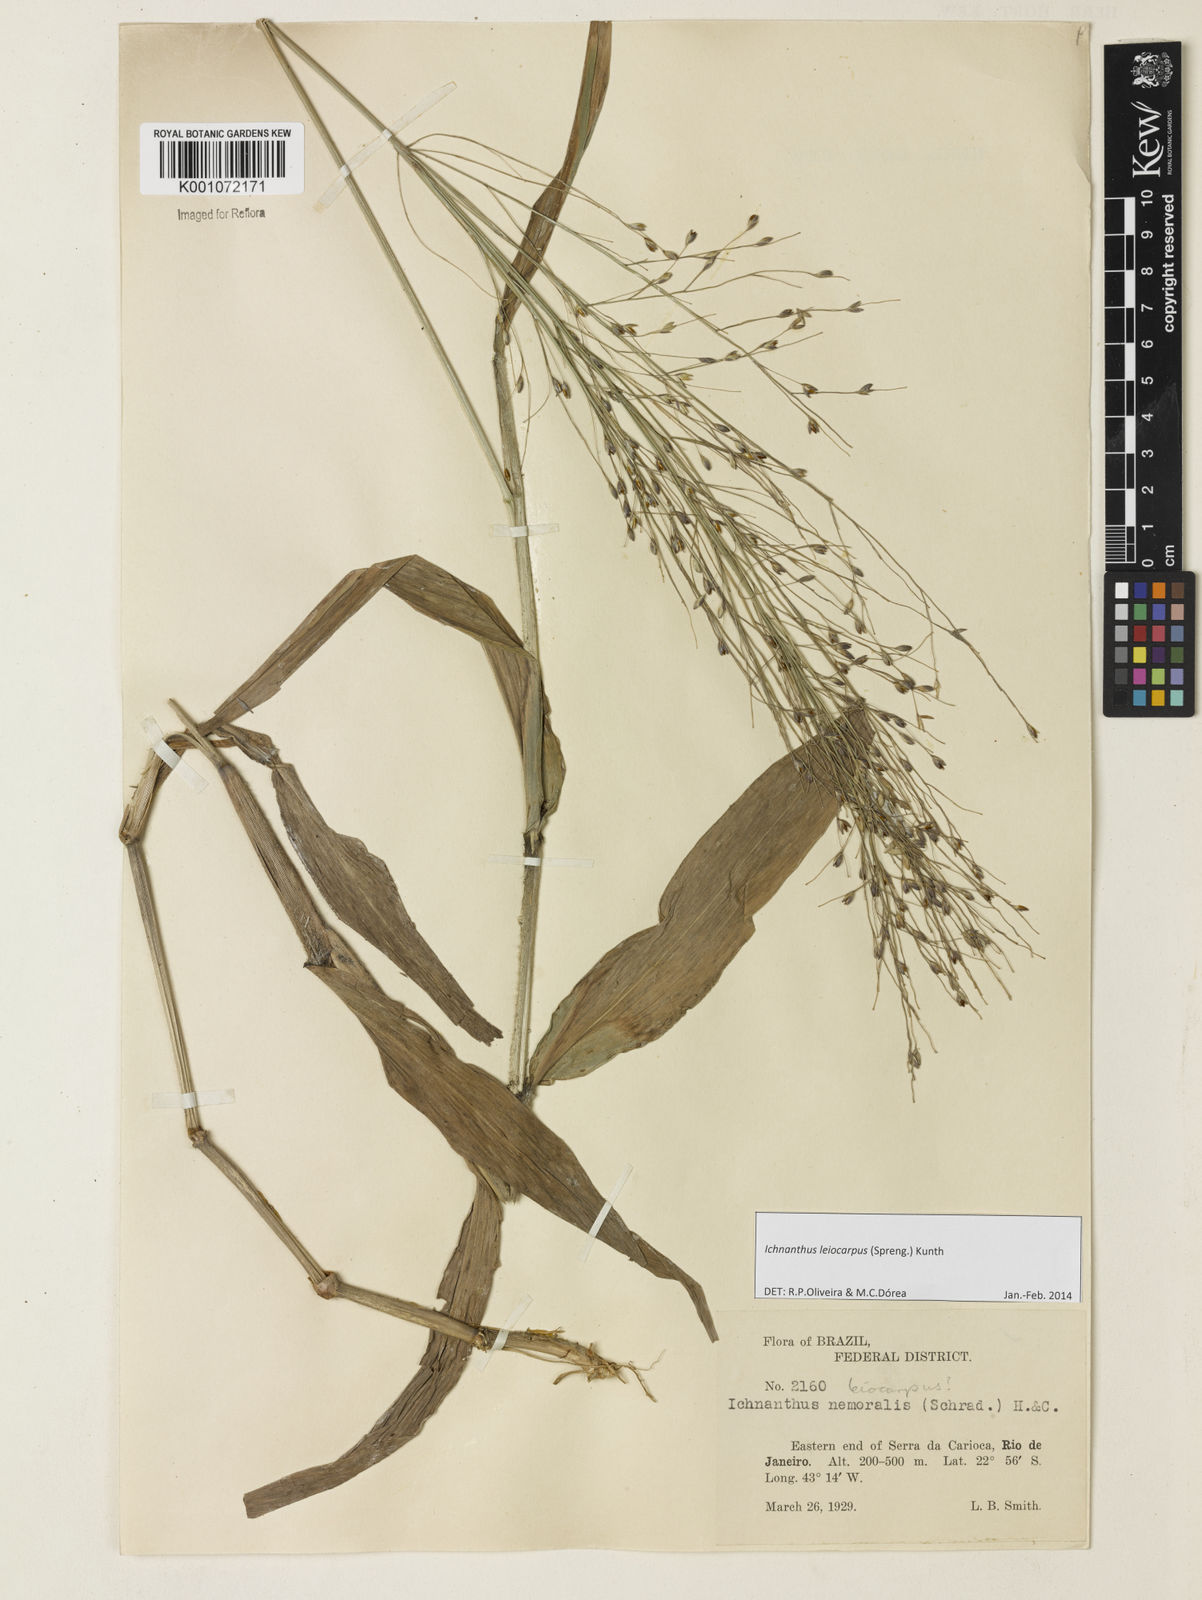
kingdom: Plantae
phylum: Tracheophyta
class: Liliopsida
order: Poales
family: Poaceae
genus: Ichnanthus
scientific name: Ichnanthus leiocarpus
